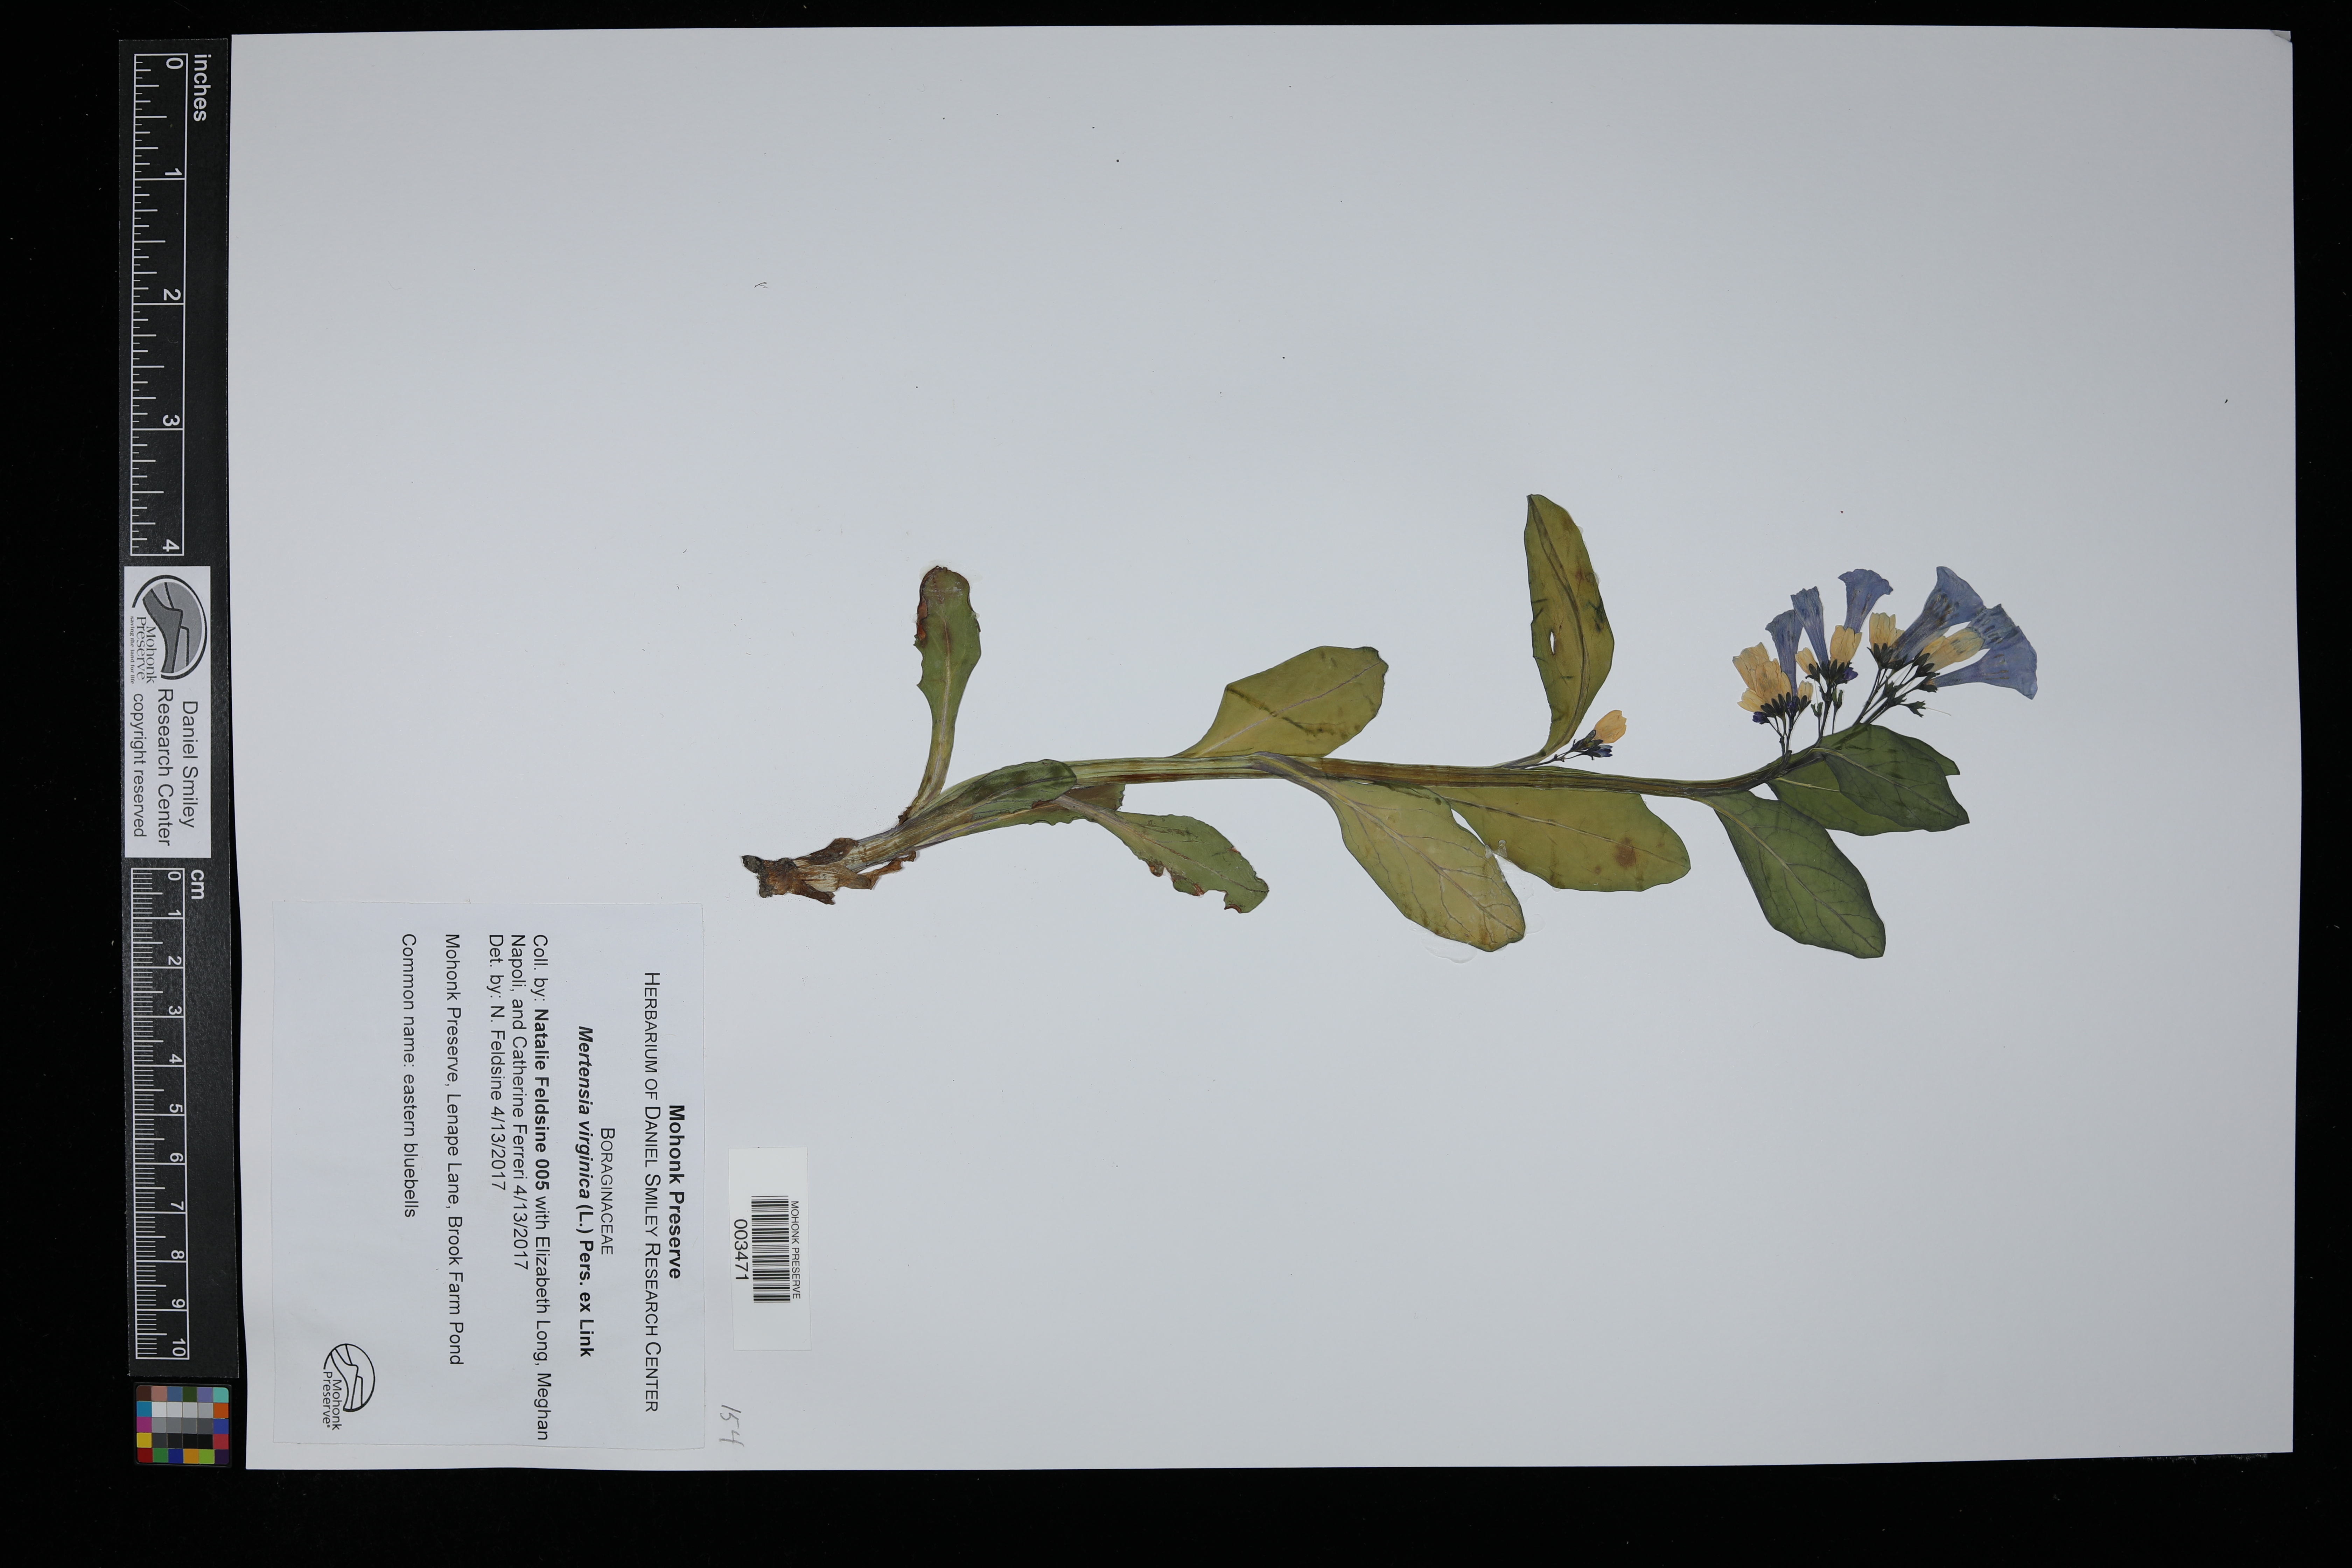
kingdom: Plantae
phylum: Tracheophyta
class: Magnoliopsida
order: Boraginales
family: Boraginaceae
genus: Mertensia
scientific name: Mertensia virginica
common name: Virginia bluebells
